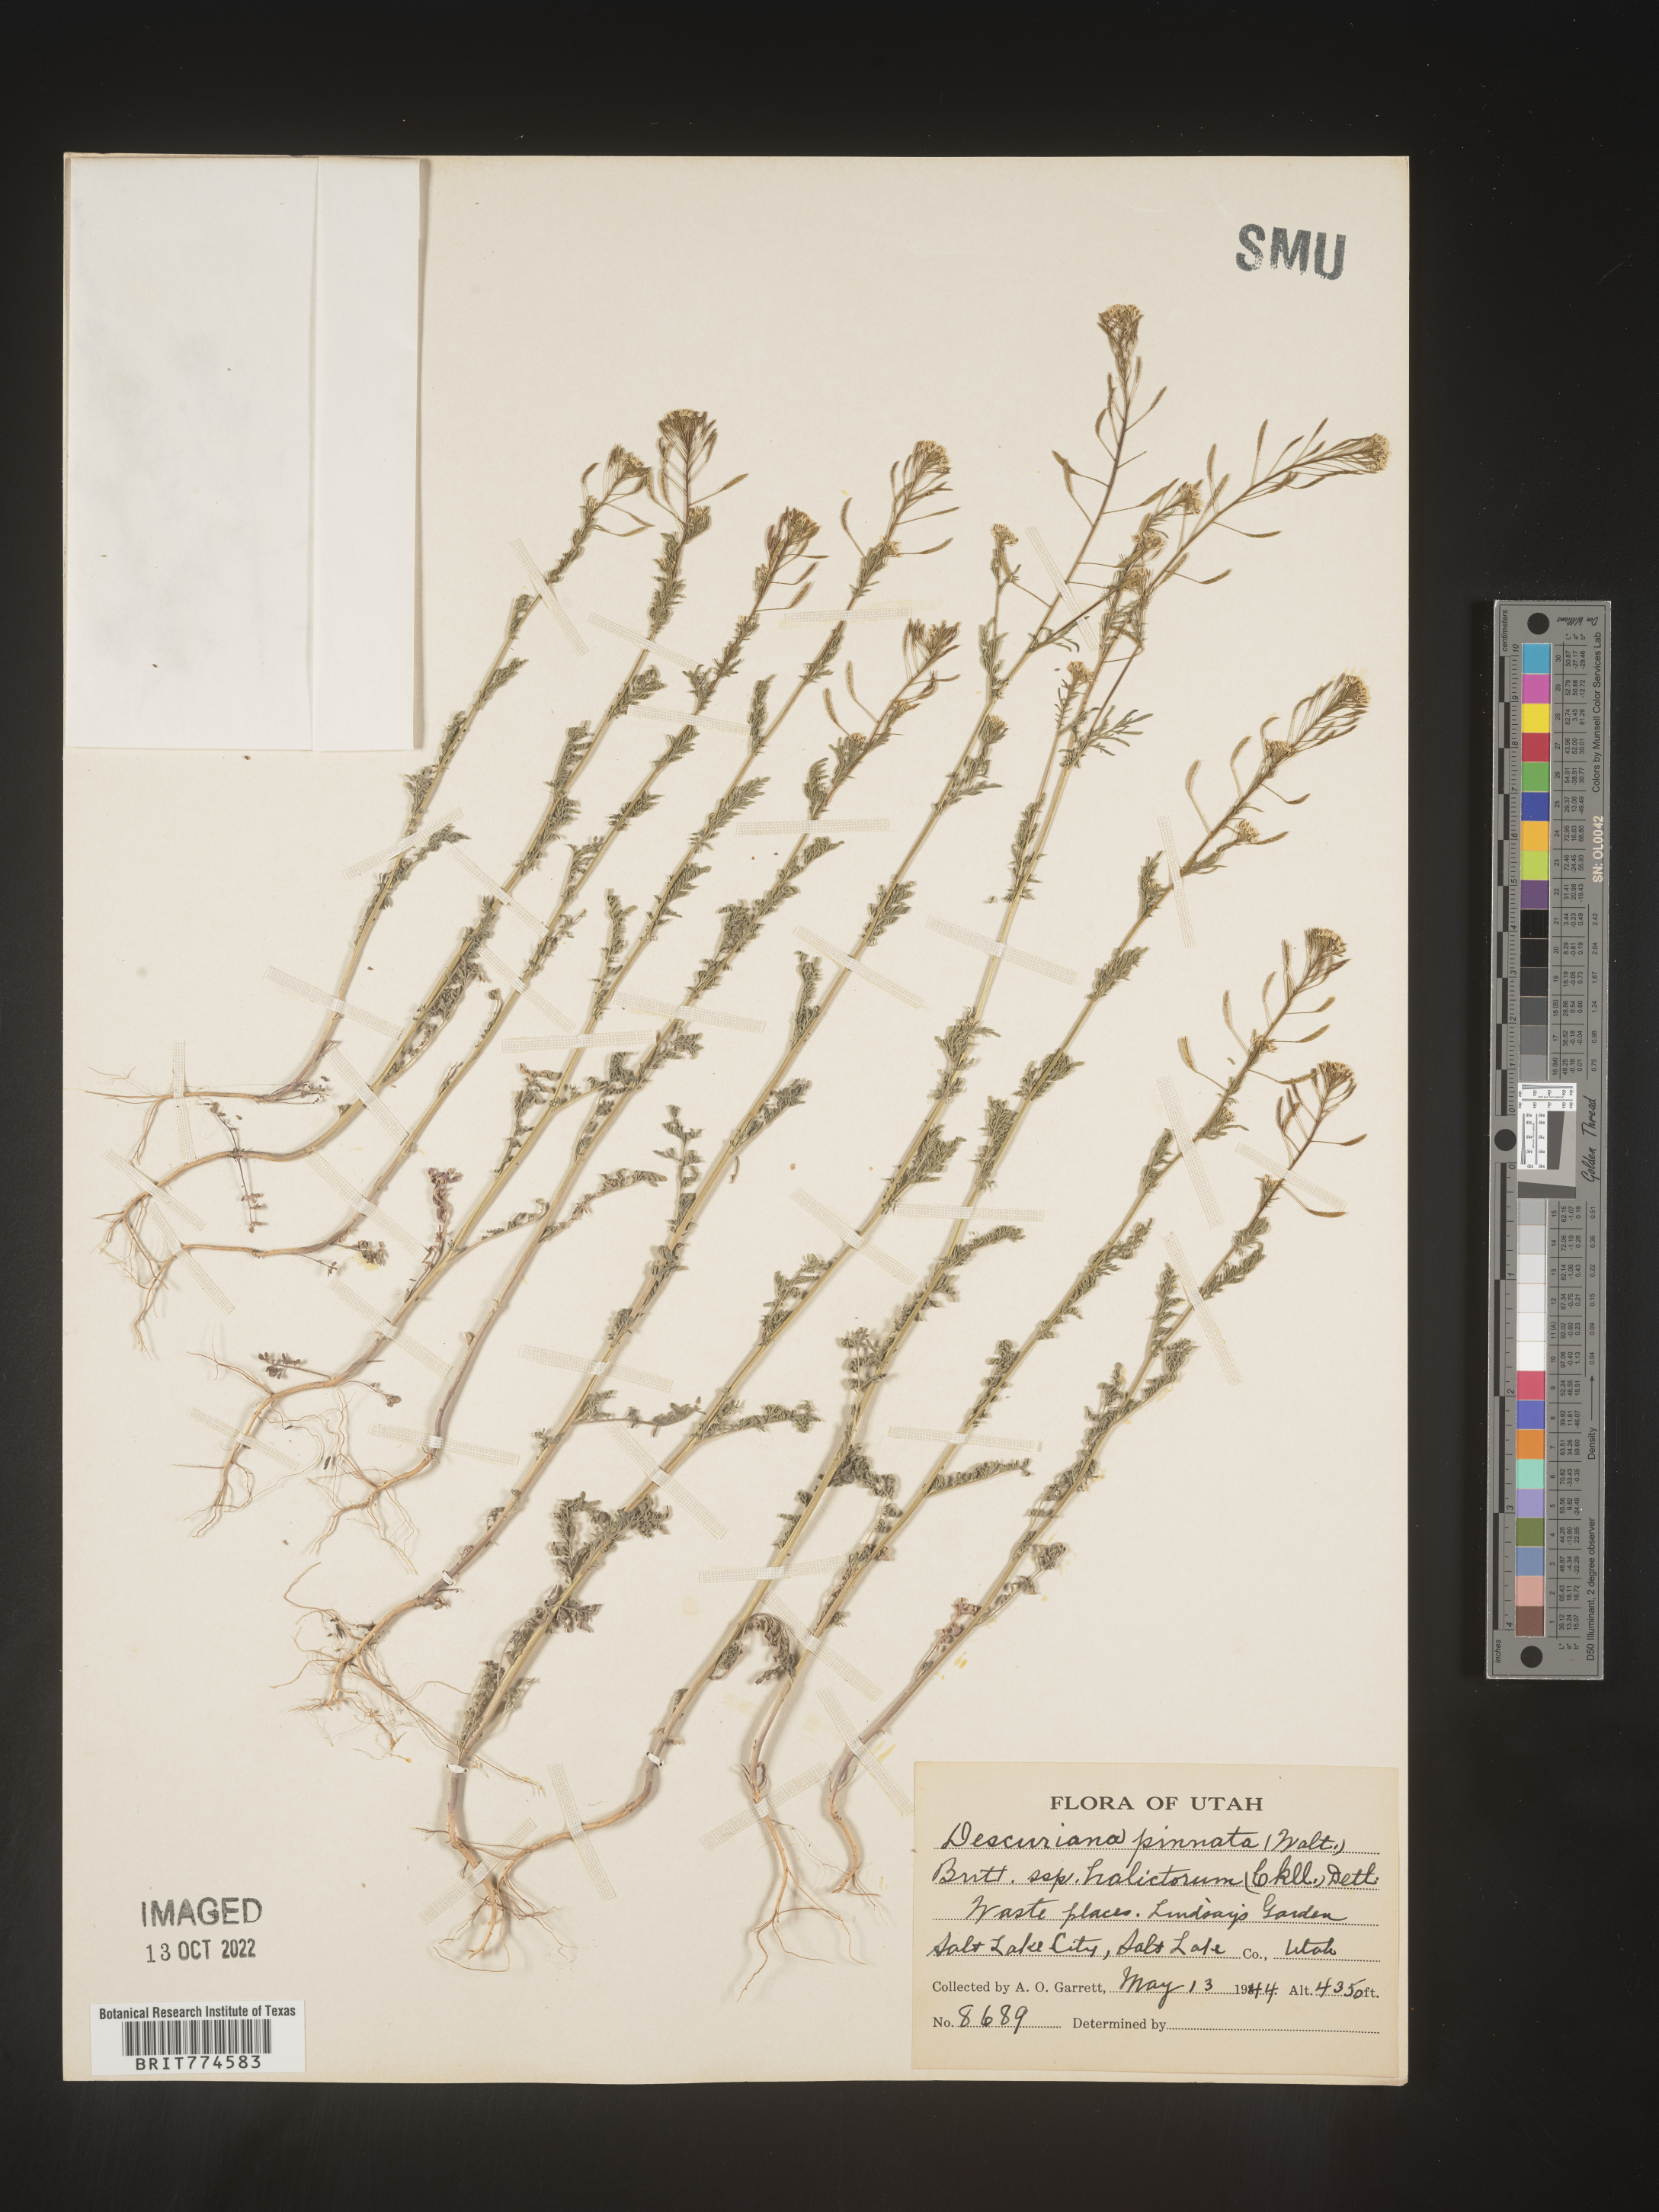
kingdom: Plantae
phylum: Tracheophyta
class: Magnoliopsida
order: Brassicales
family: Brassicaceae
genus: Descurainia
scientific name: Descurainia pinnata
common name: Western tansy mustard
